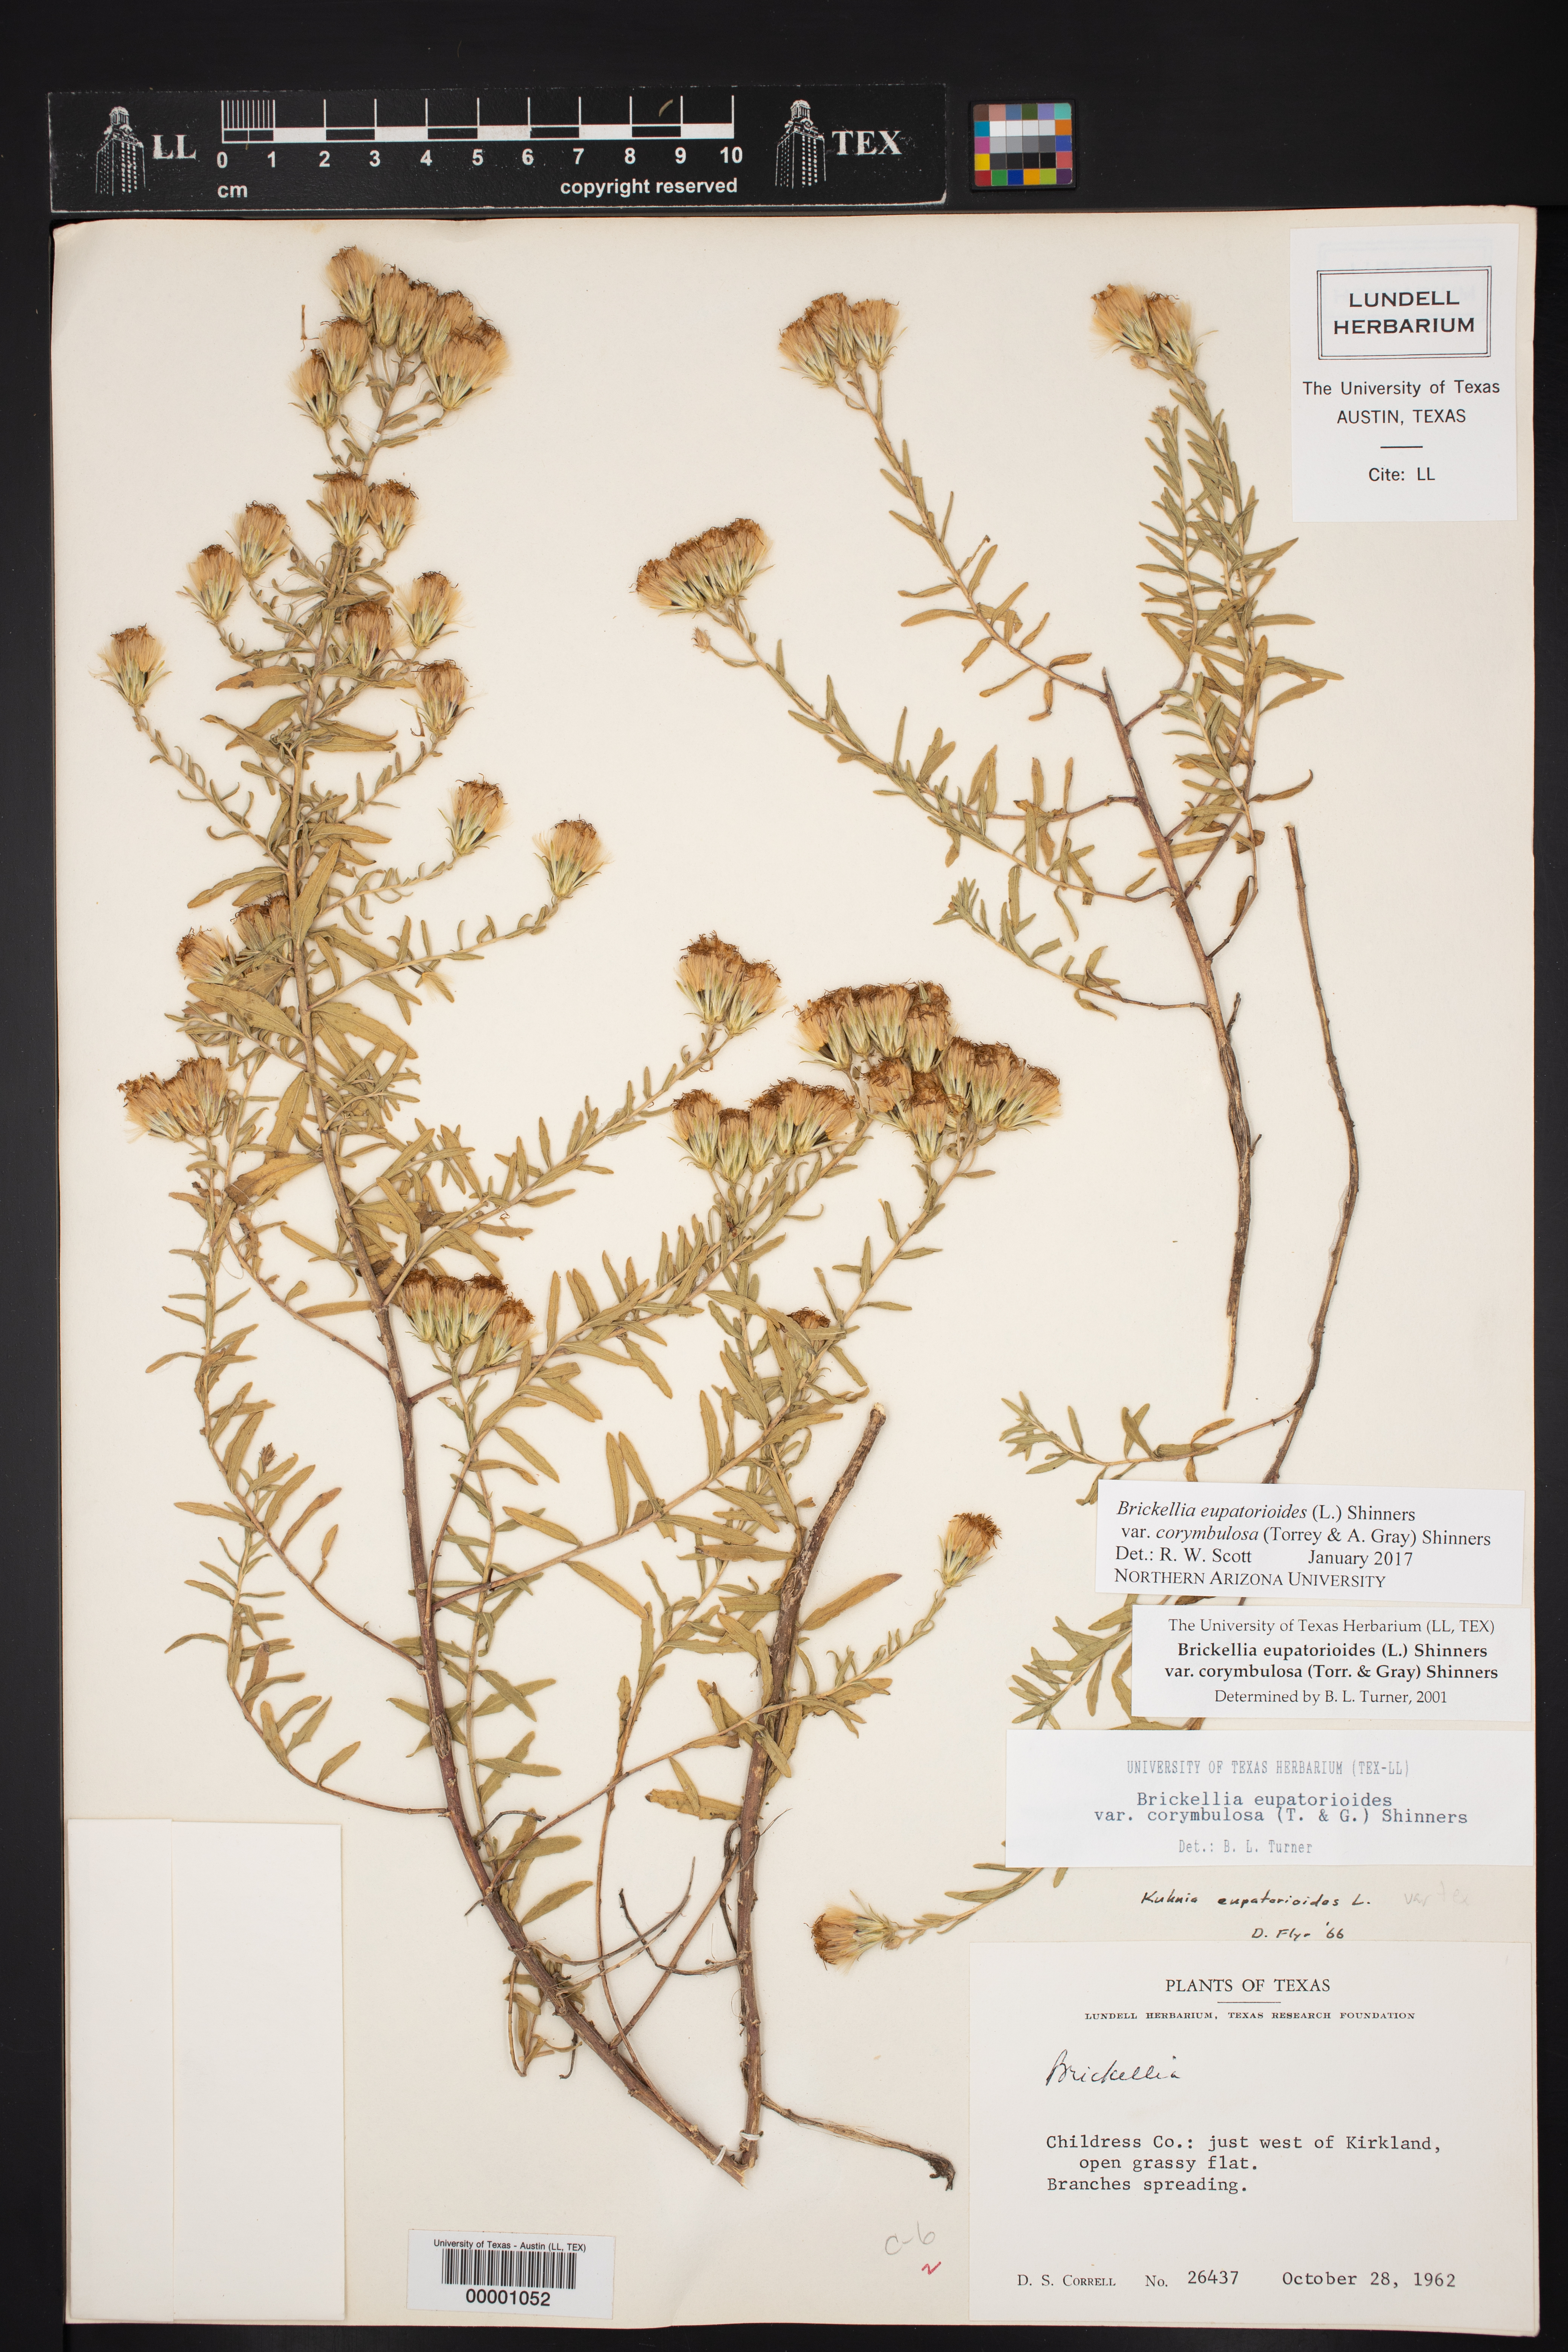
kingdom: Plantae
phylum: Tracheophyta
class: Magnoliopsida
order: Asterales
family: Asteraceae
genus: Brickellia
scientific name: Brickellia suaveolens
